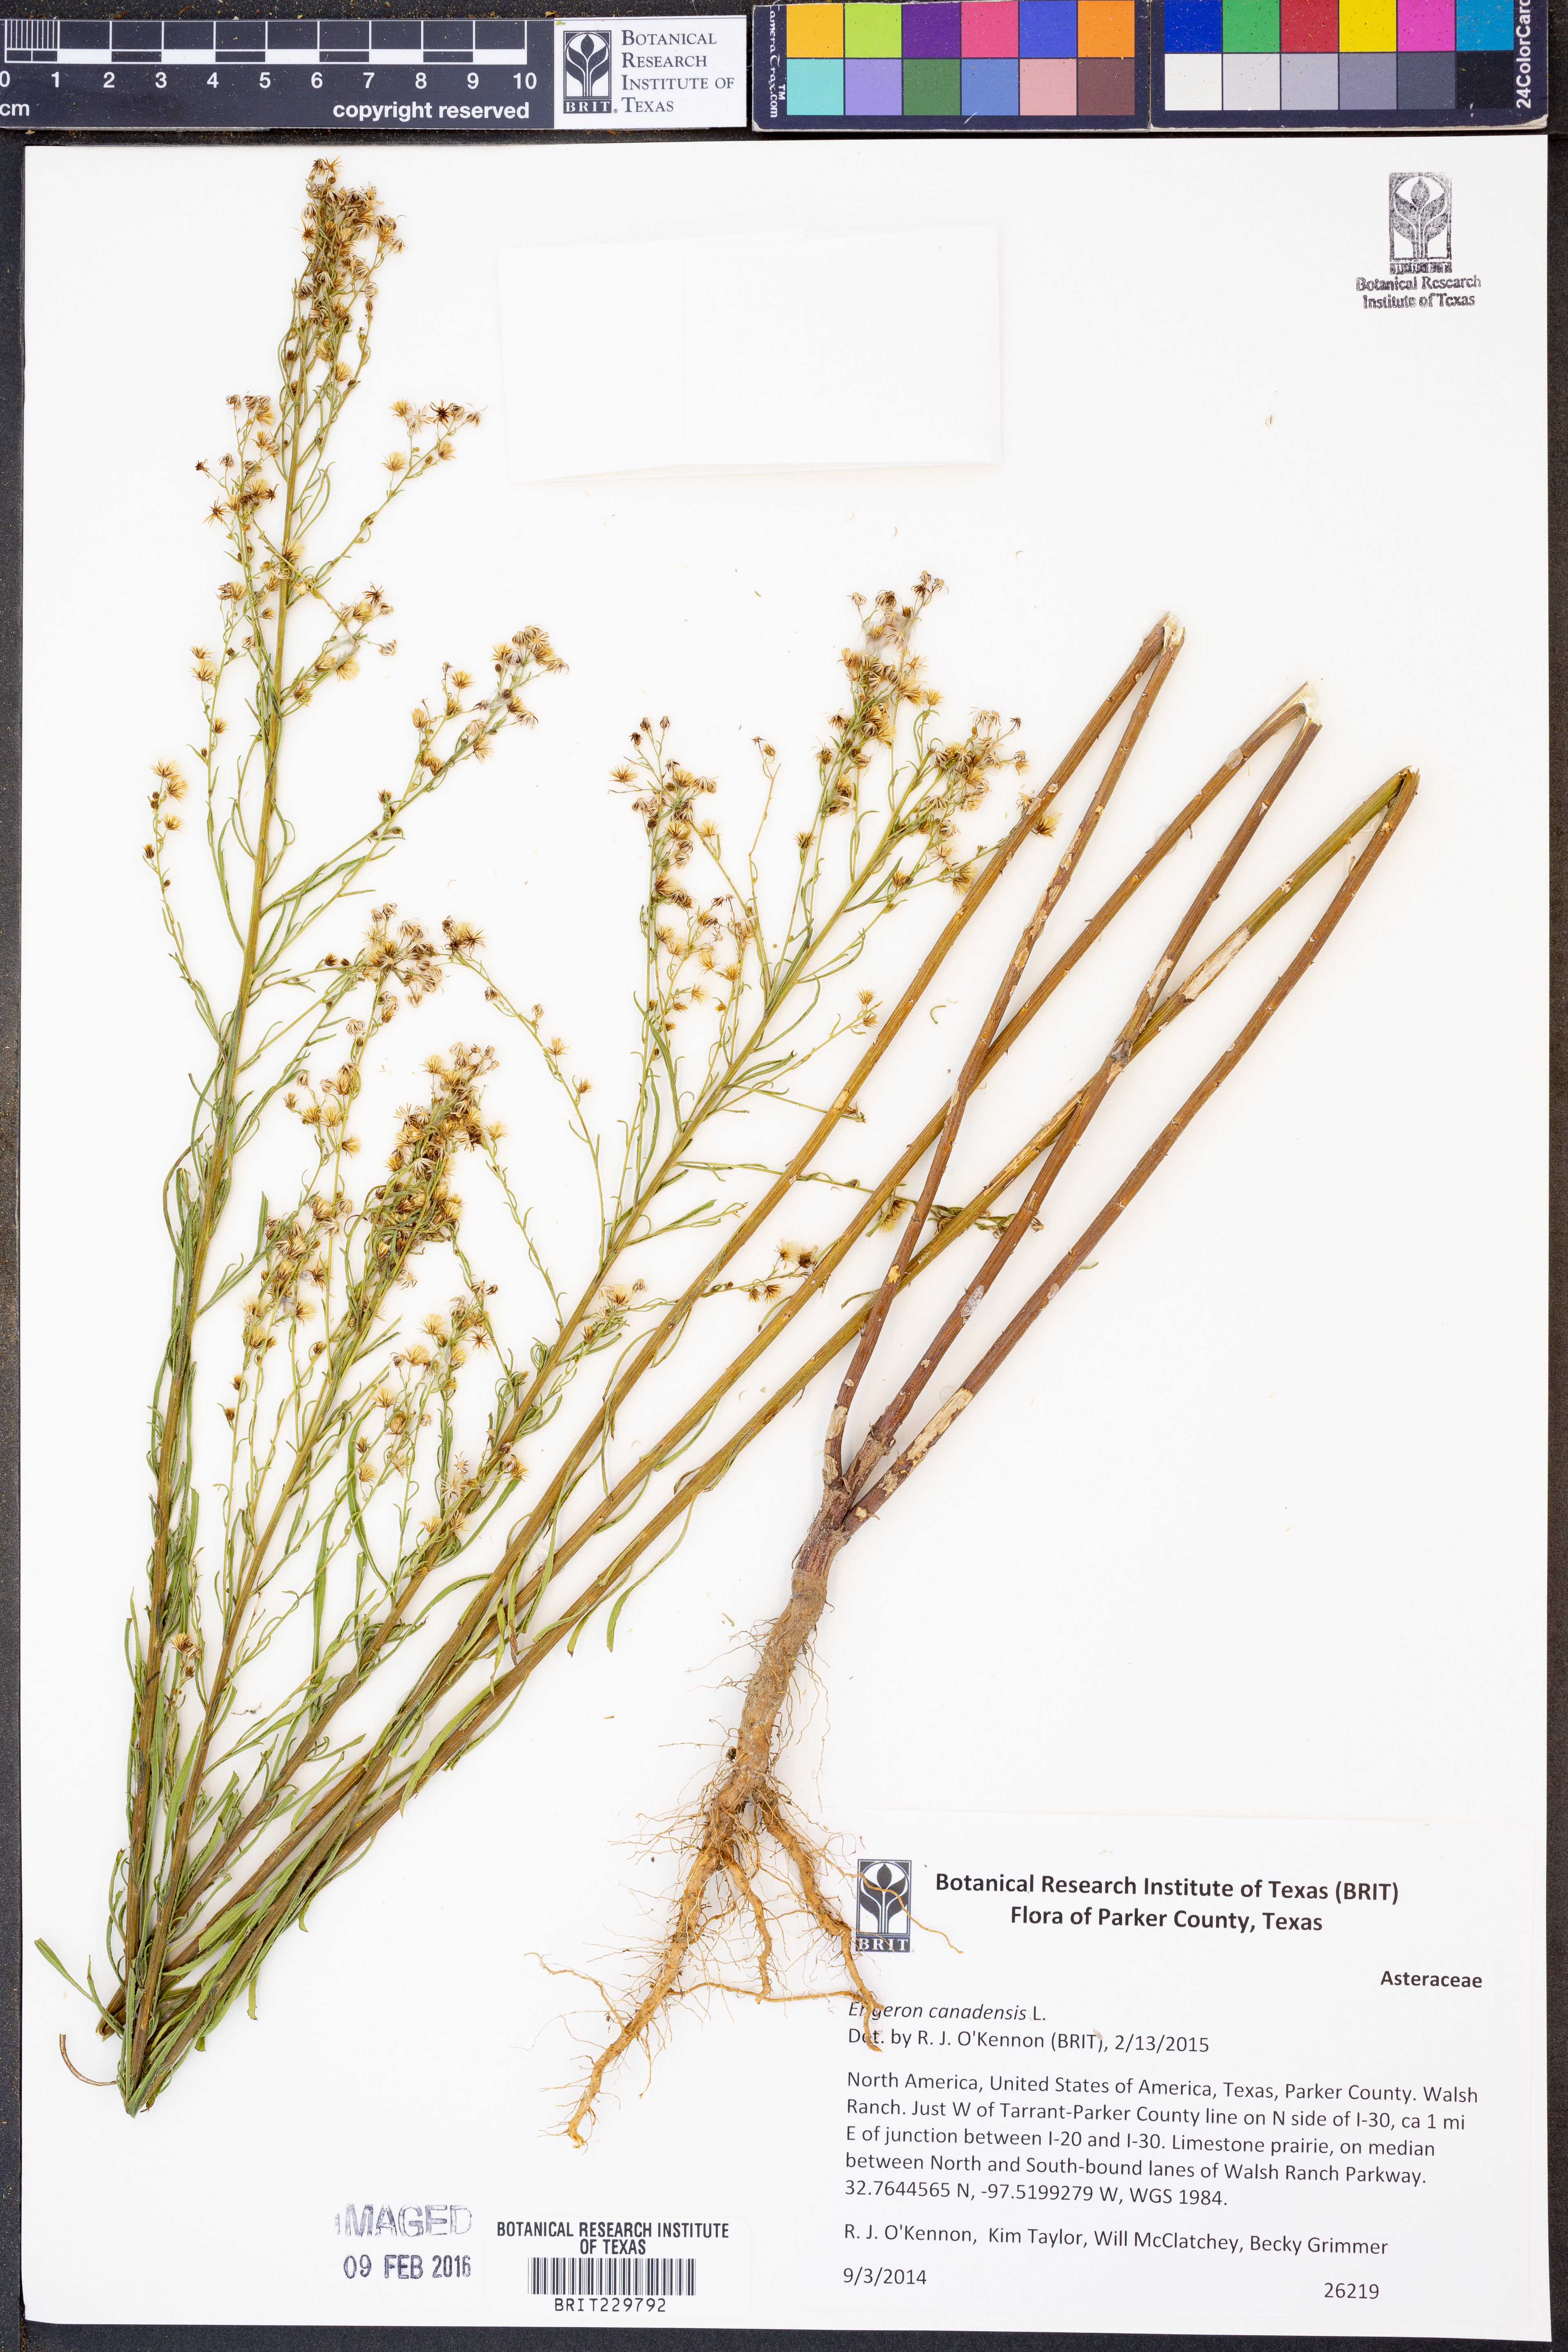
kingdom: Plantae
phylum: Tracheophyta
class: Magnoliopsida
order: Asterales
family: Asteraceae
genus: Erigeron
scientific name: Erigeron canadensis
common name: Canadian fleabane
